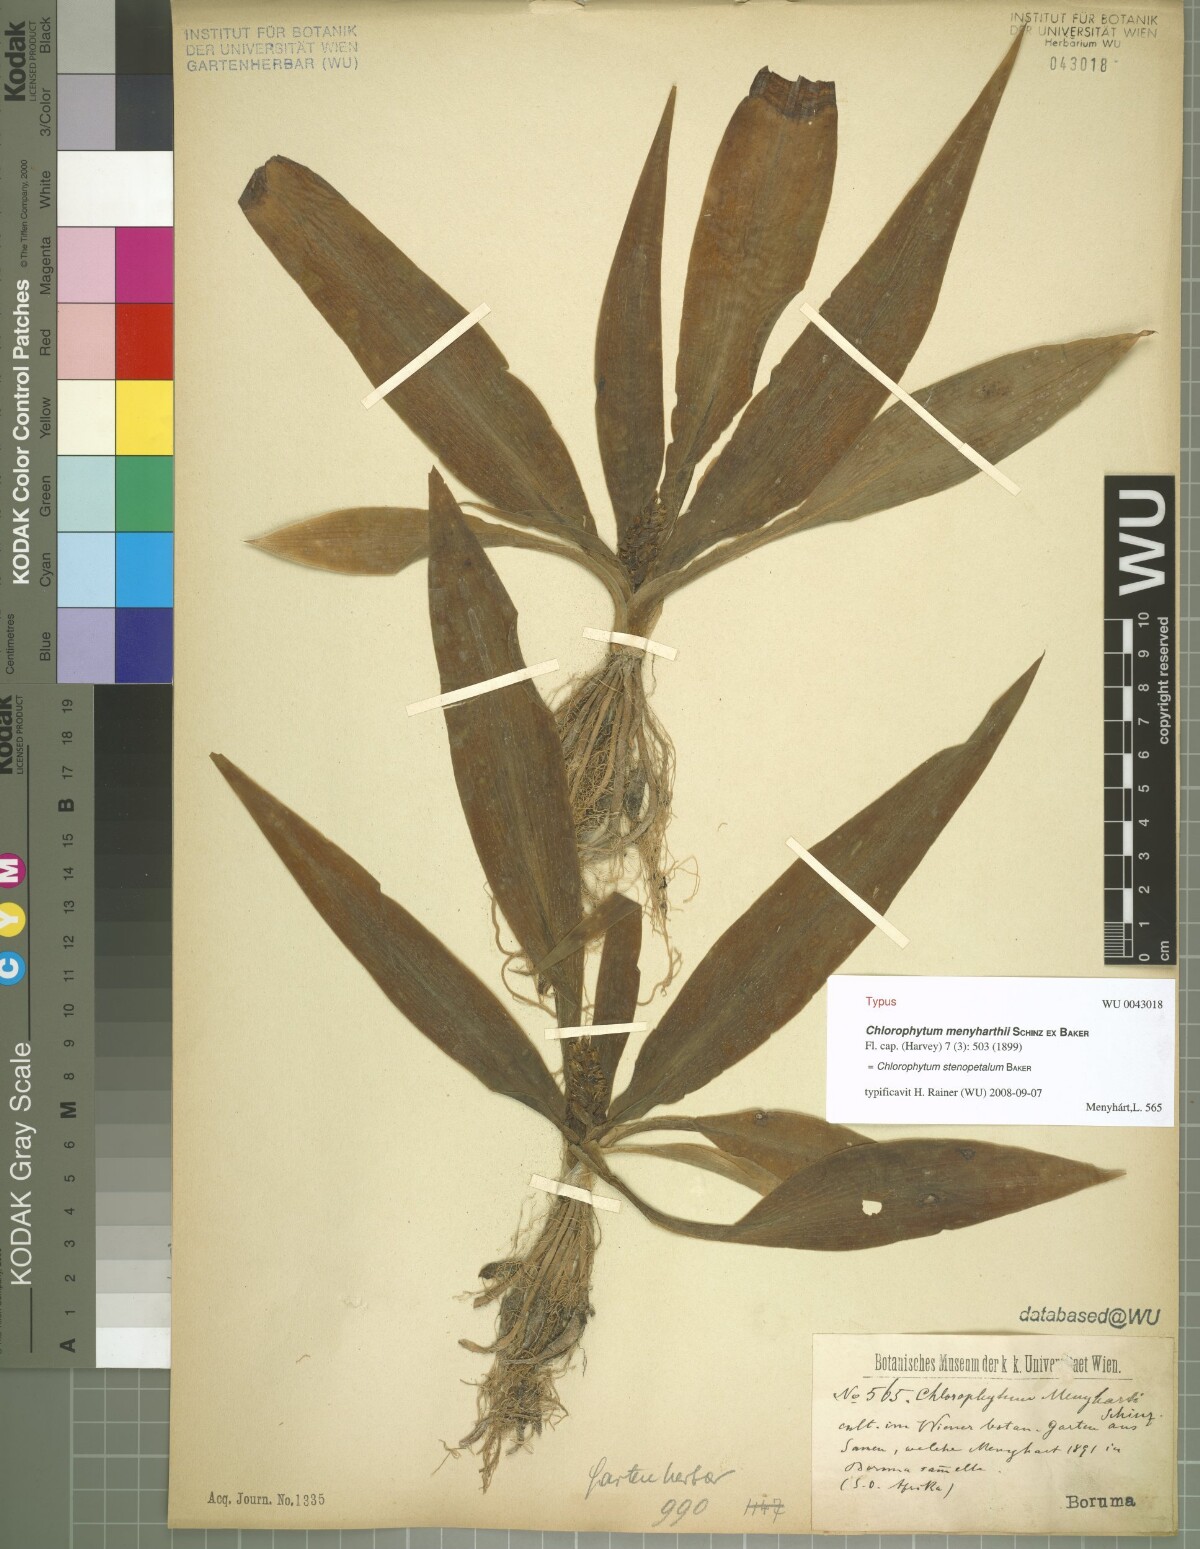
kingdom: Plantae
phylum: Tracheophyta
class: Liliopsida
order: Asparagales
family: Asparagaceae
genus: Chlorophytum
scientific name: Chlorophytum stenopetalum
